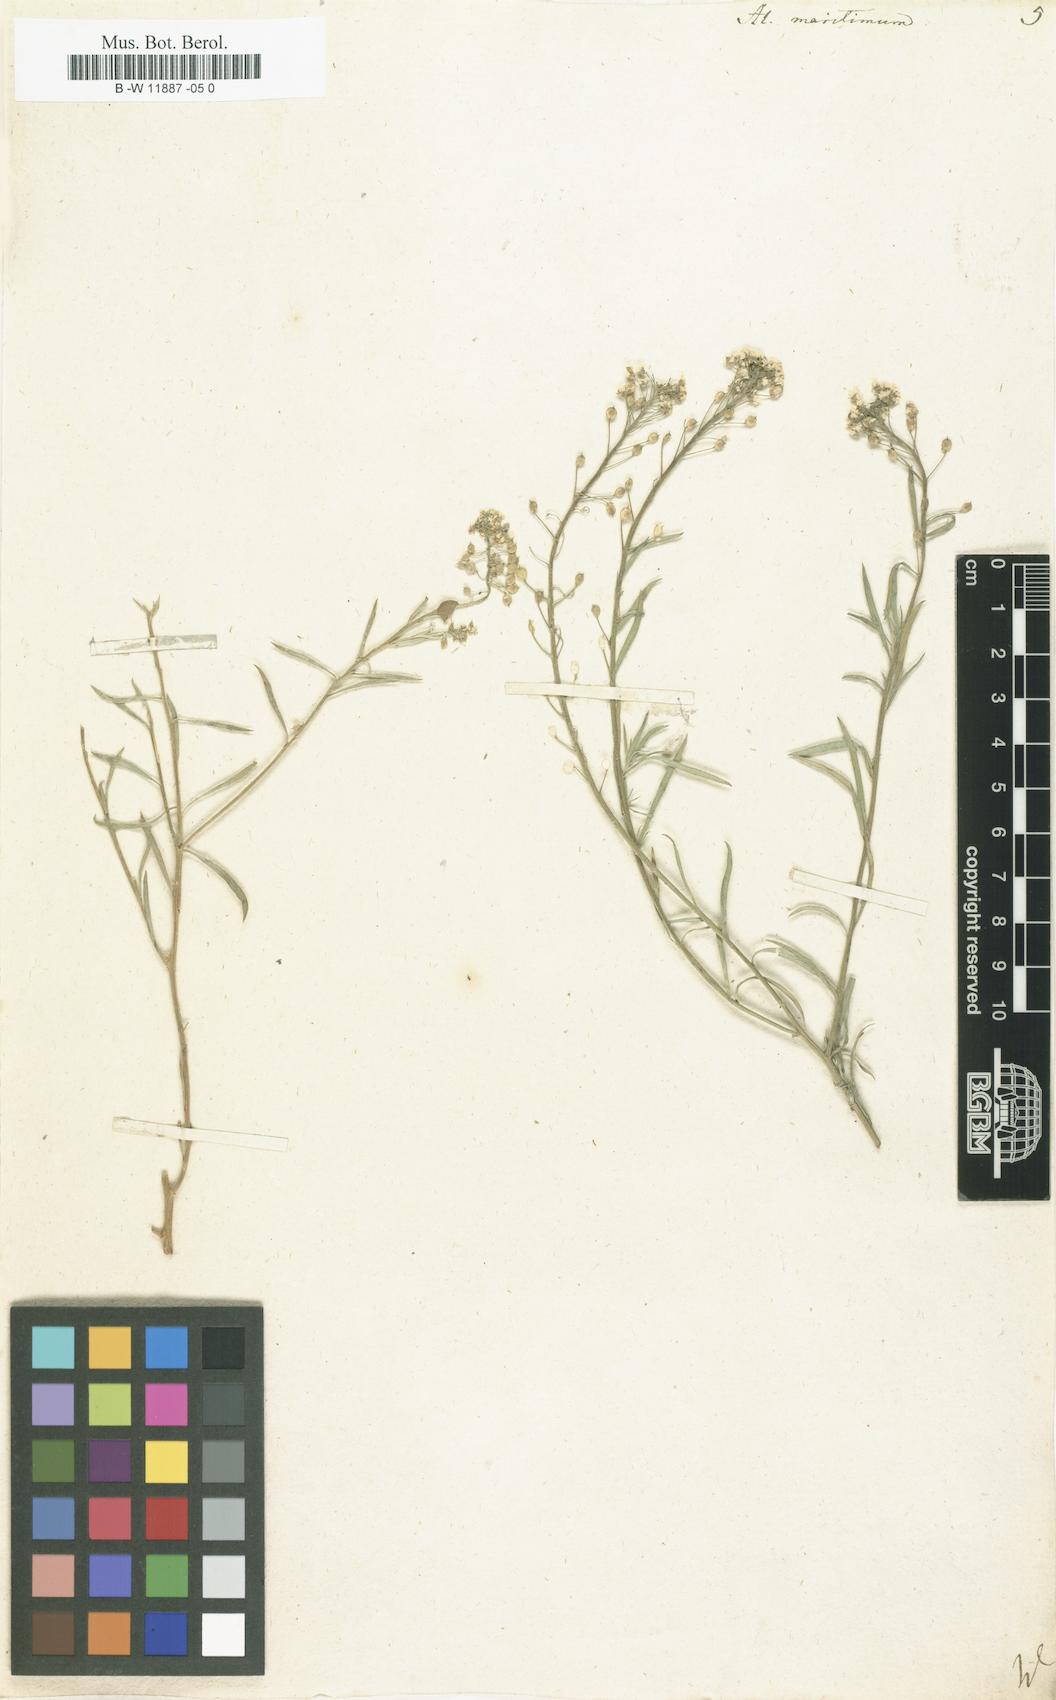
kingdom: Plantae
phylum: Tracheophyta
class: Magnoliopsida
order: Brassicales
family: Brassicaceae
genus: Lobularia
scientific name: Lobularia maritima
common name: Sweet alison
